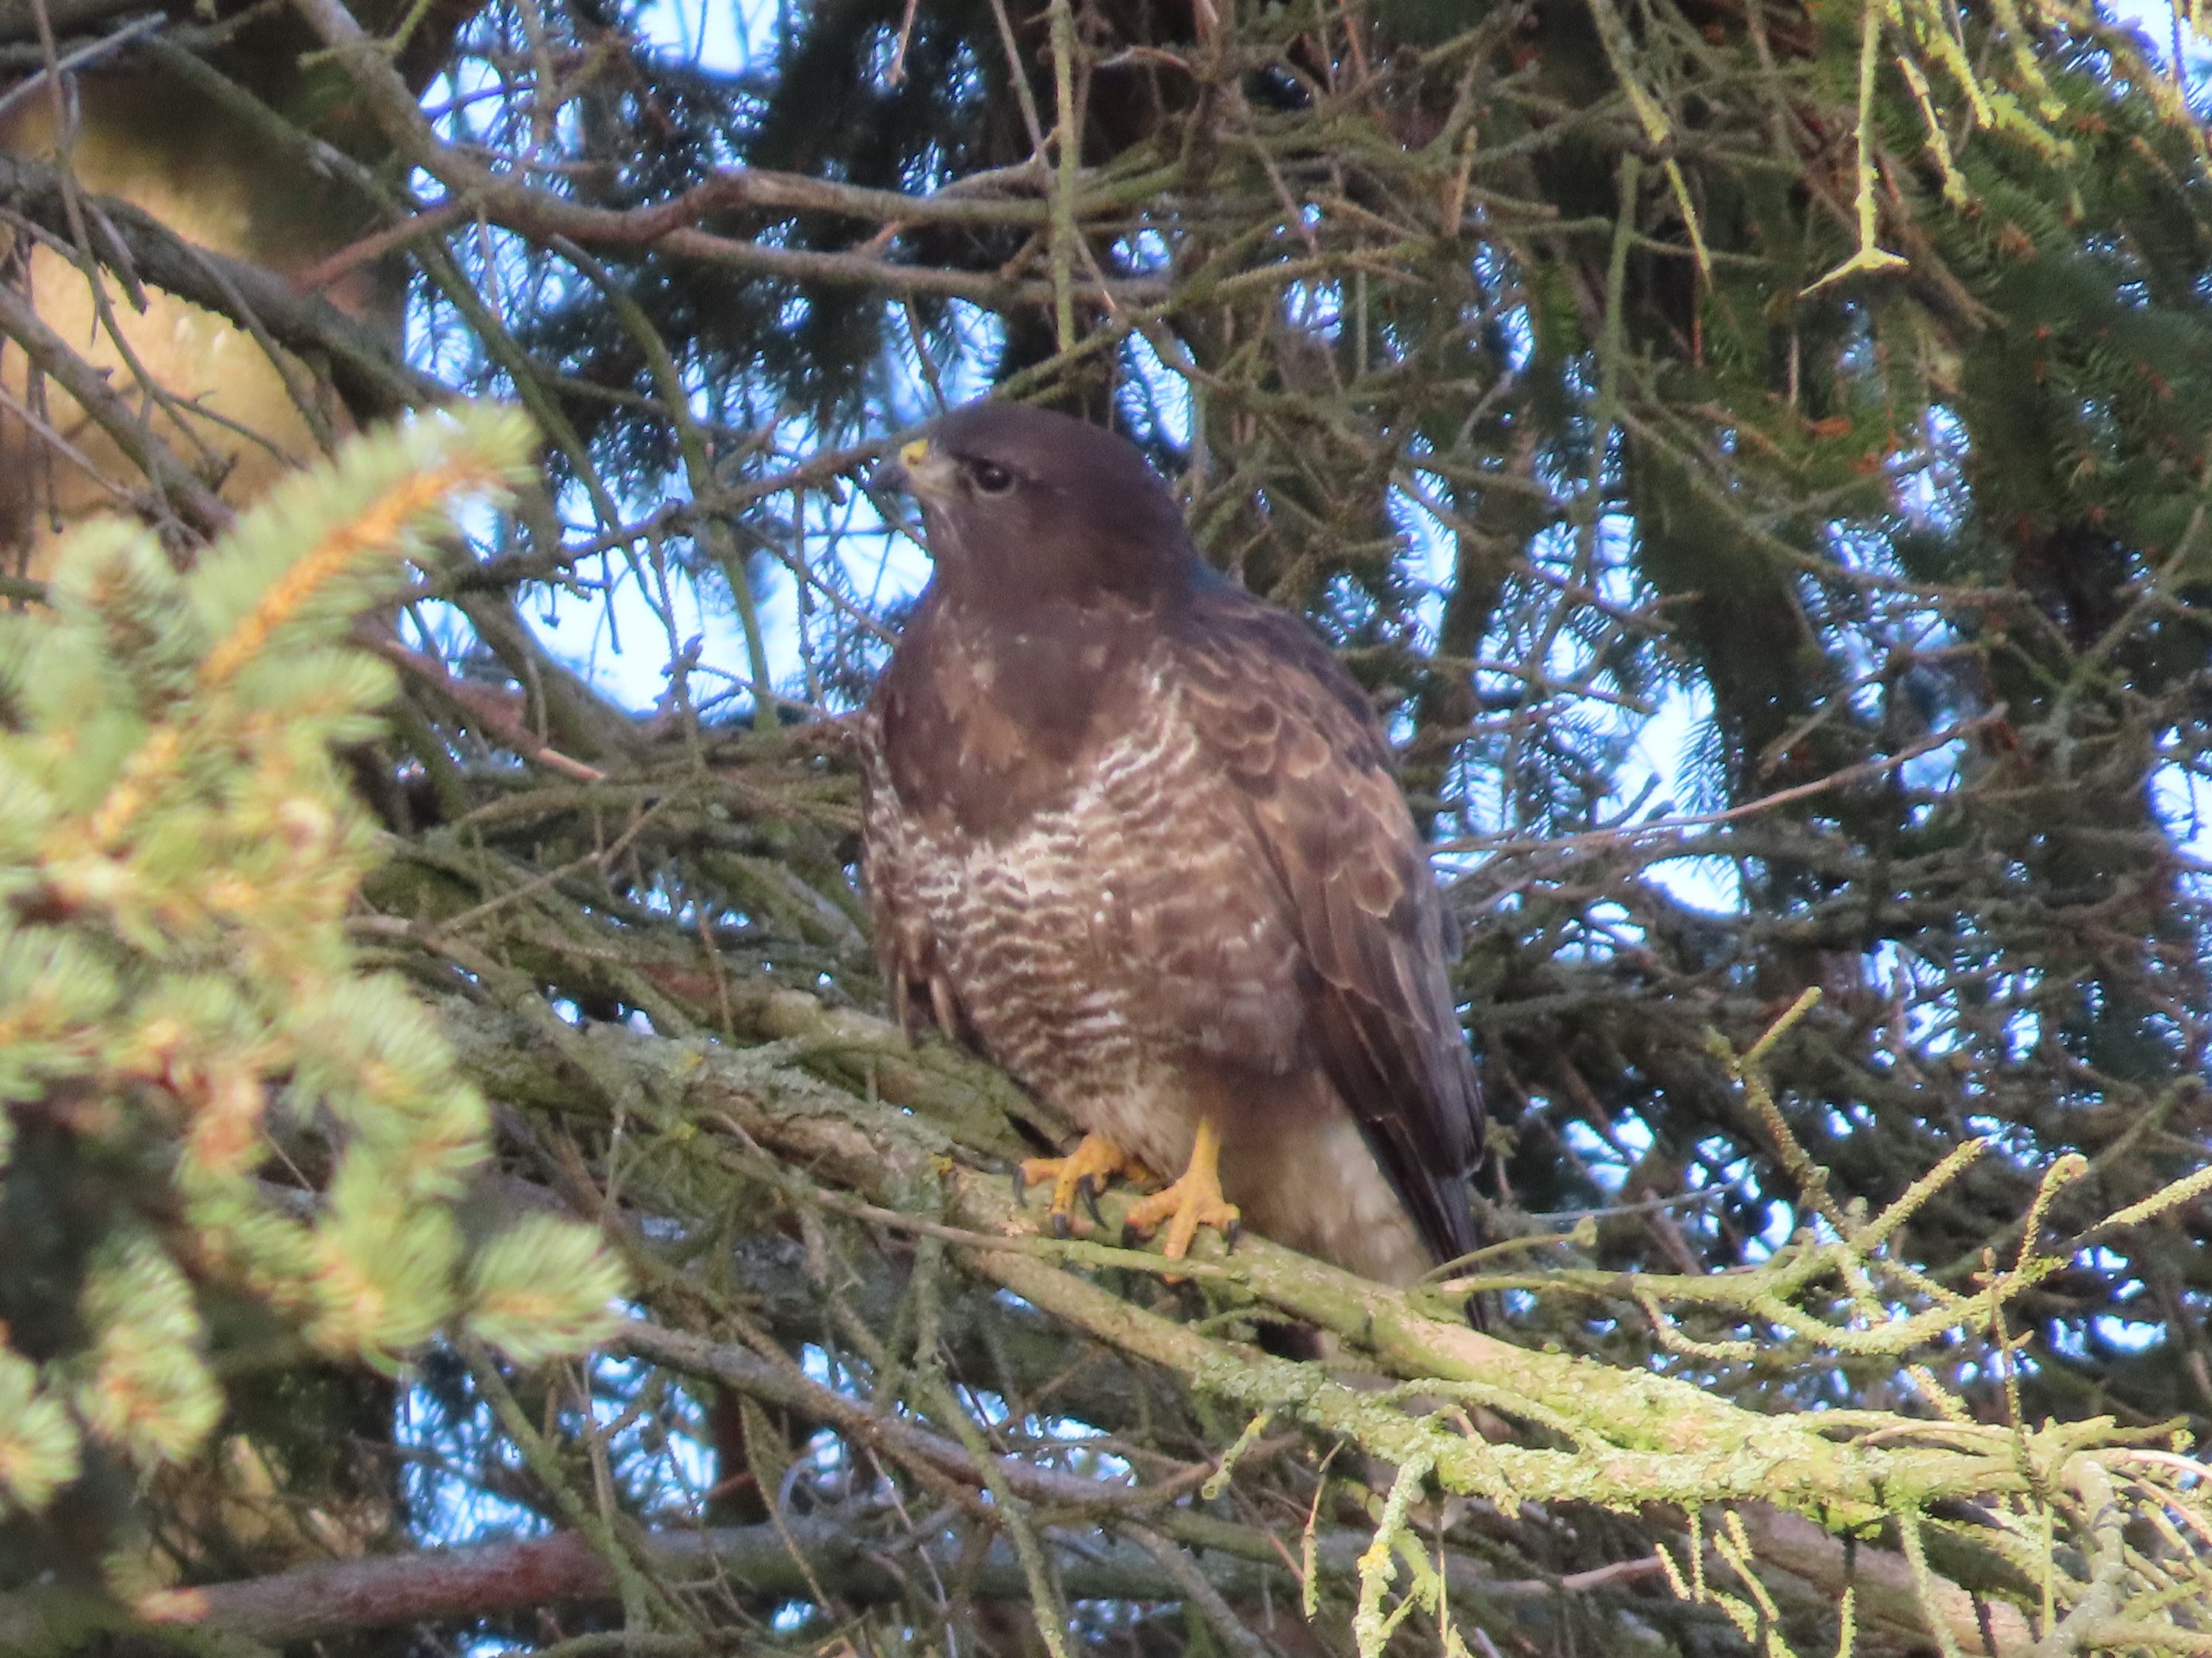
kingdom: Animalia
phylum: Chordata
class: Aves
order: Accipitriformes
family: Accipitridae
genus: Buteo
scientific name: Buteo buteo
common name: Musvåge
